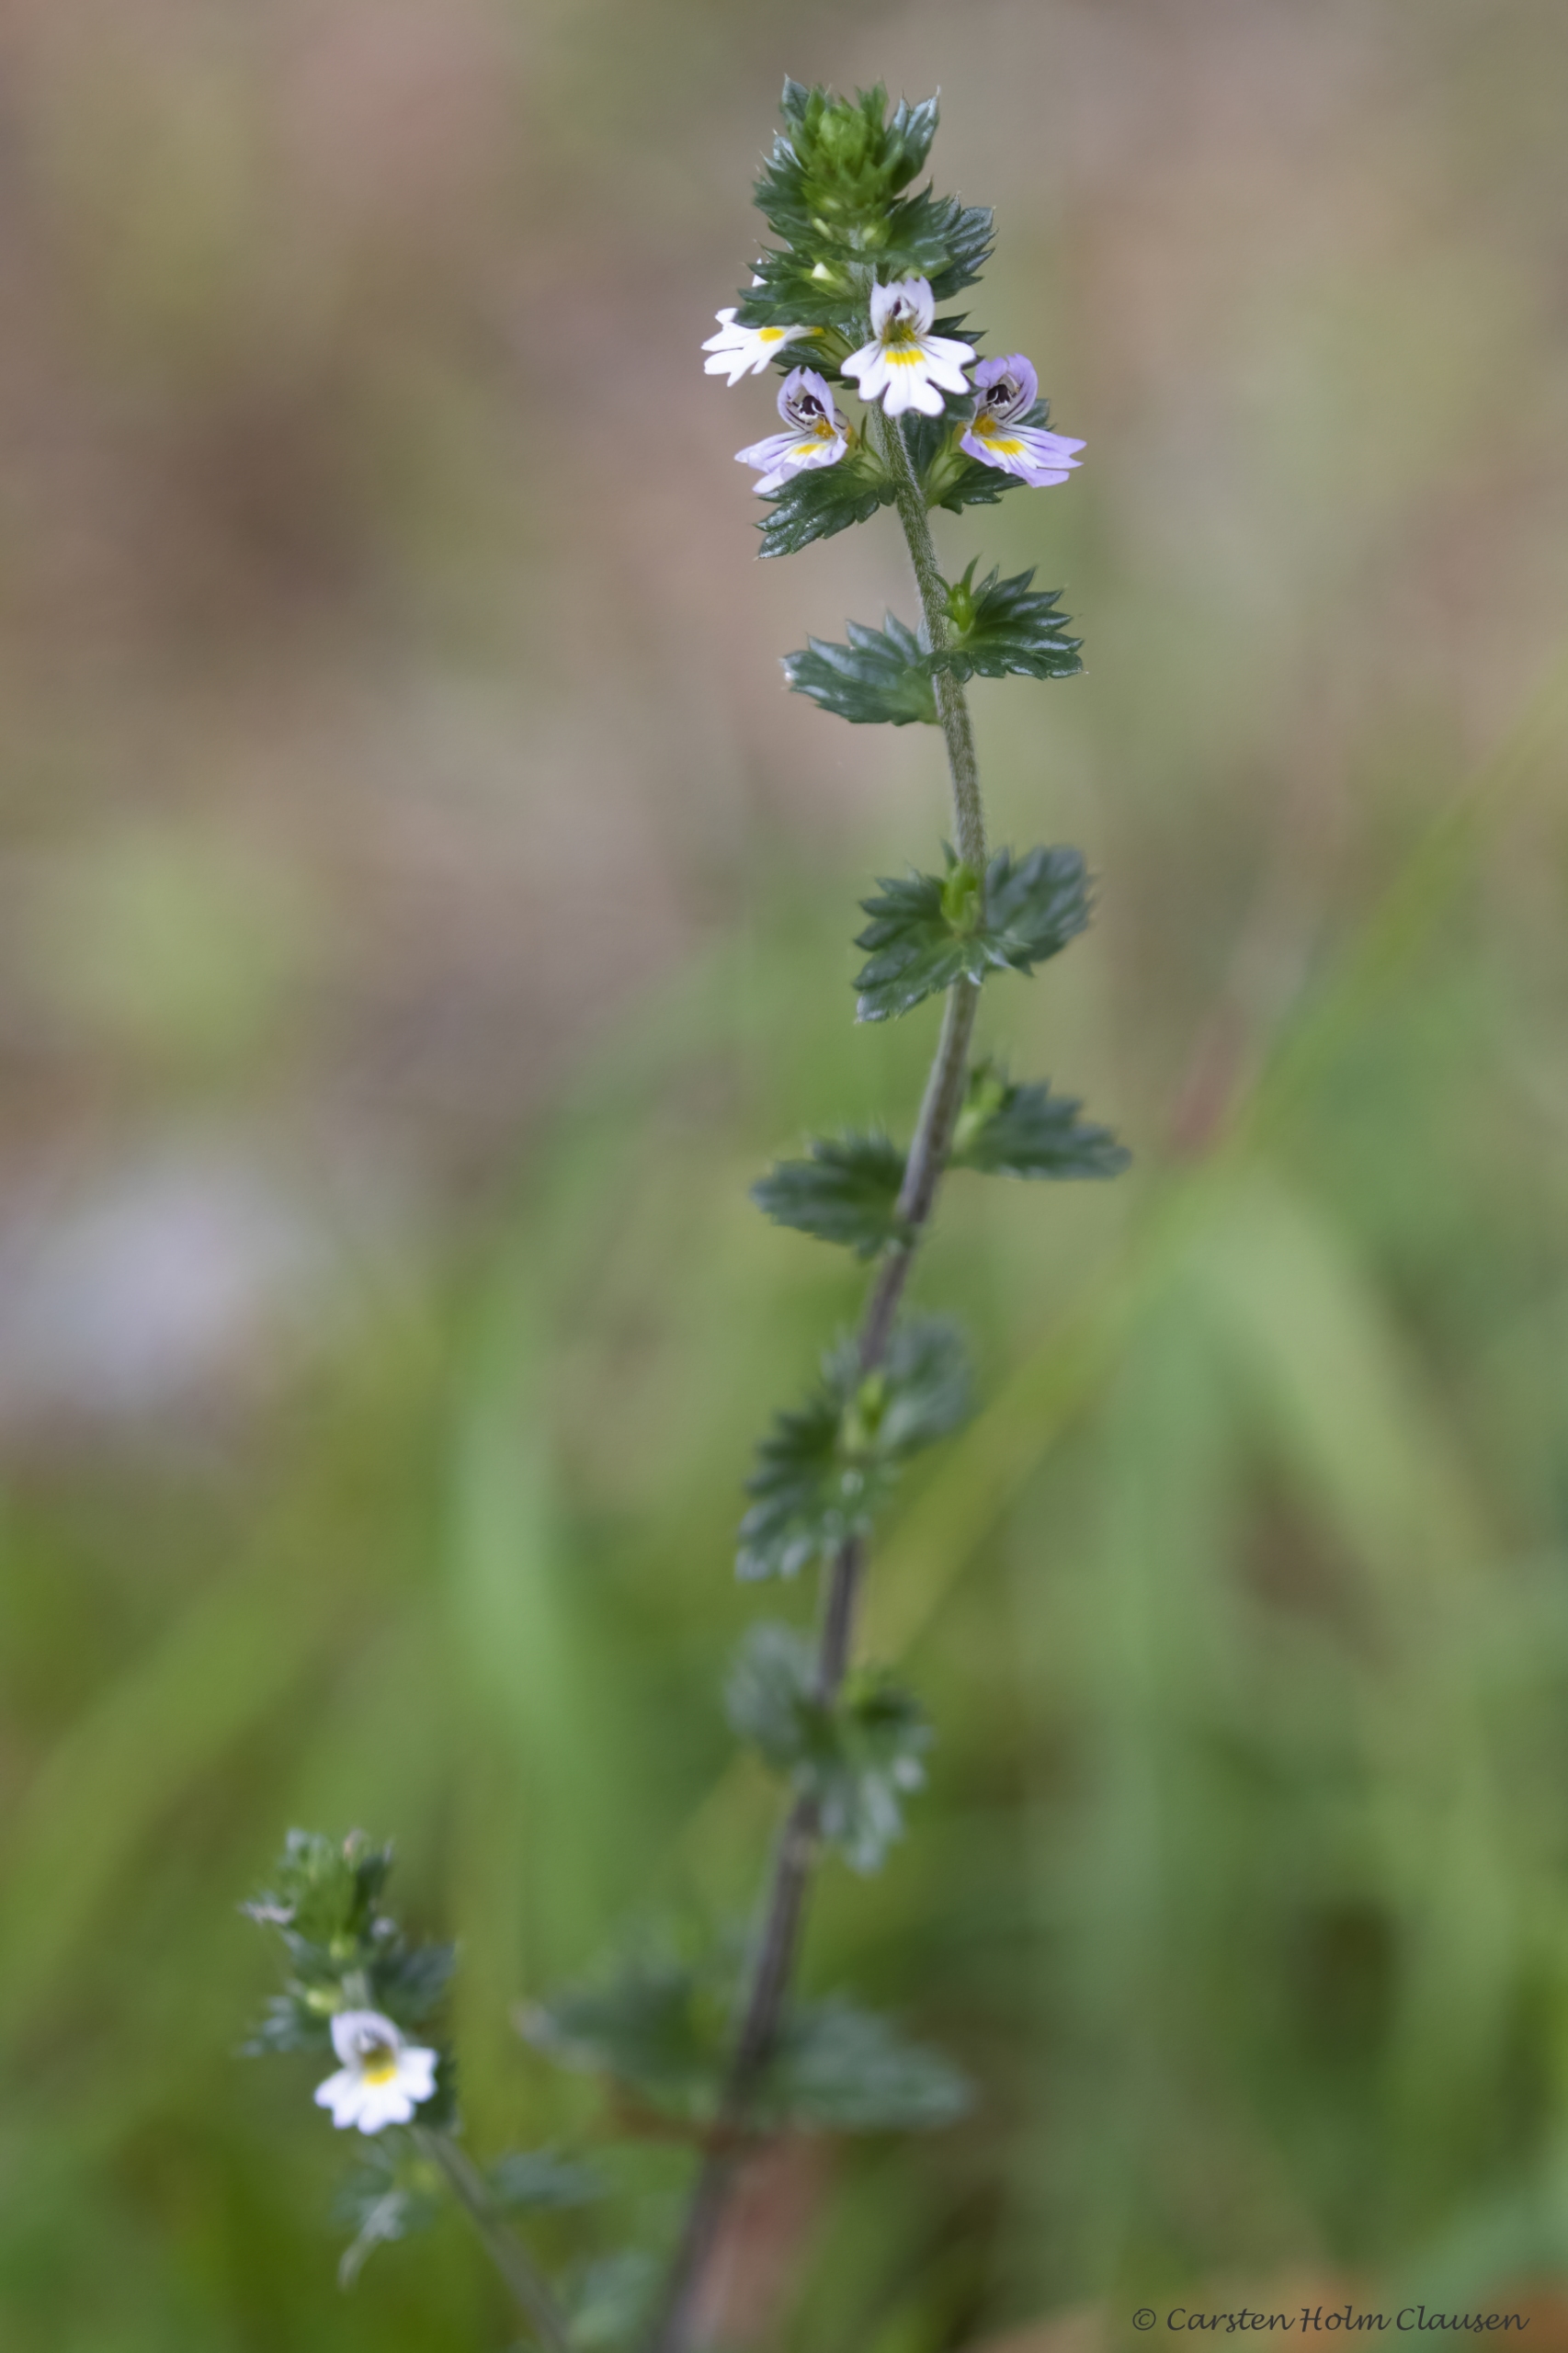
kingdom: Plantae
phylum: Tracheophyta
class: Magnoliopsida
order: Lamiales
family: Orobanchaceae
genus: Euphrasia
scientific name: Euphrasia nemorosa
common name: Kort øjentrøst
